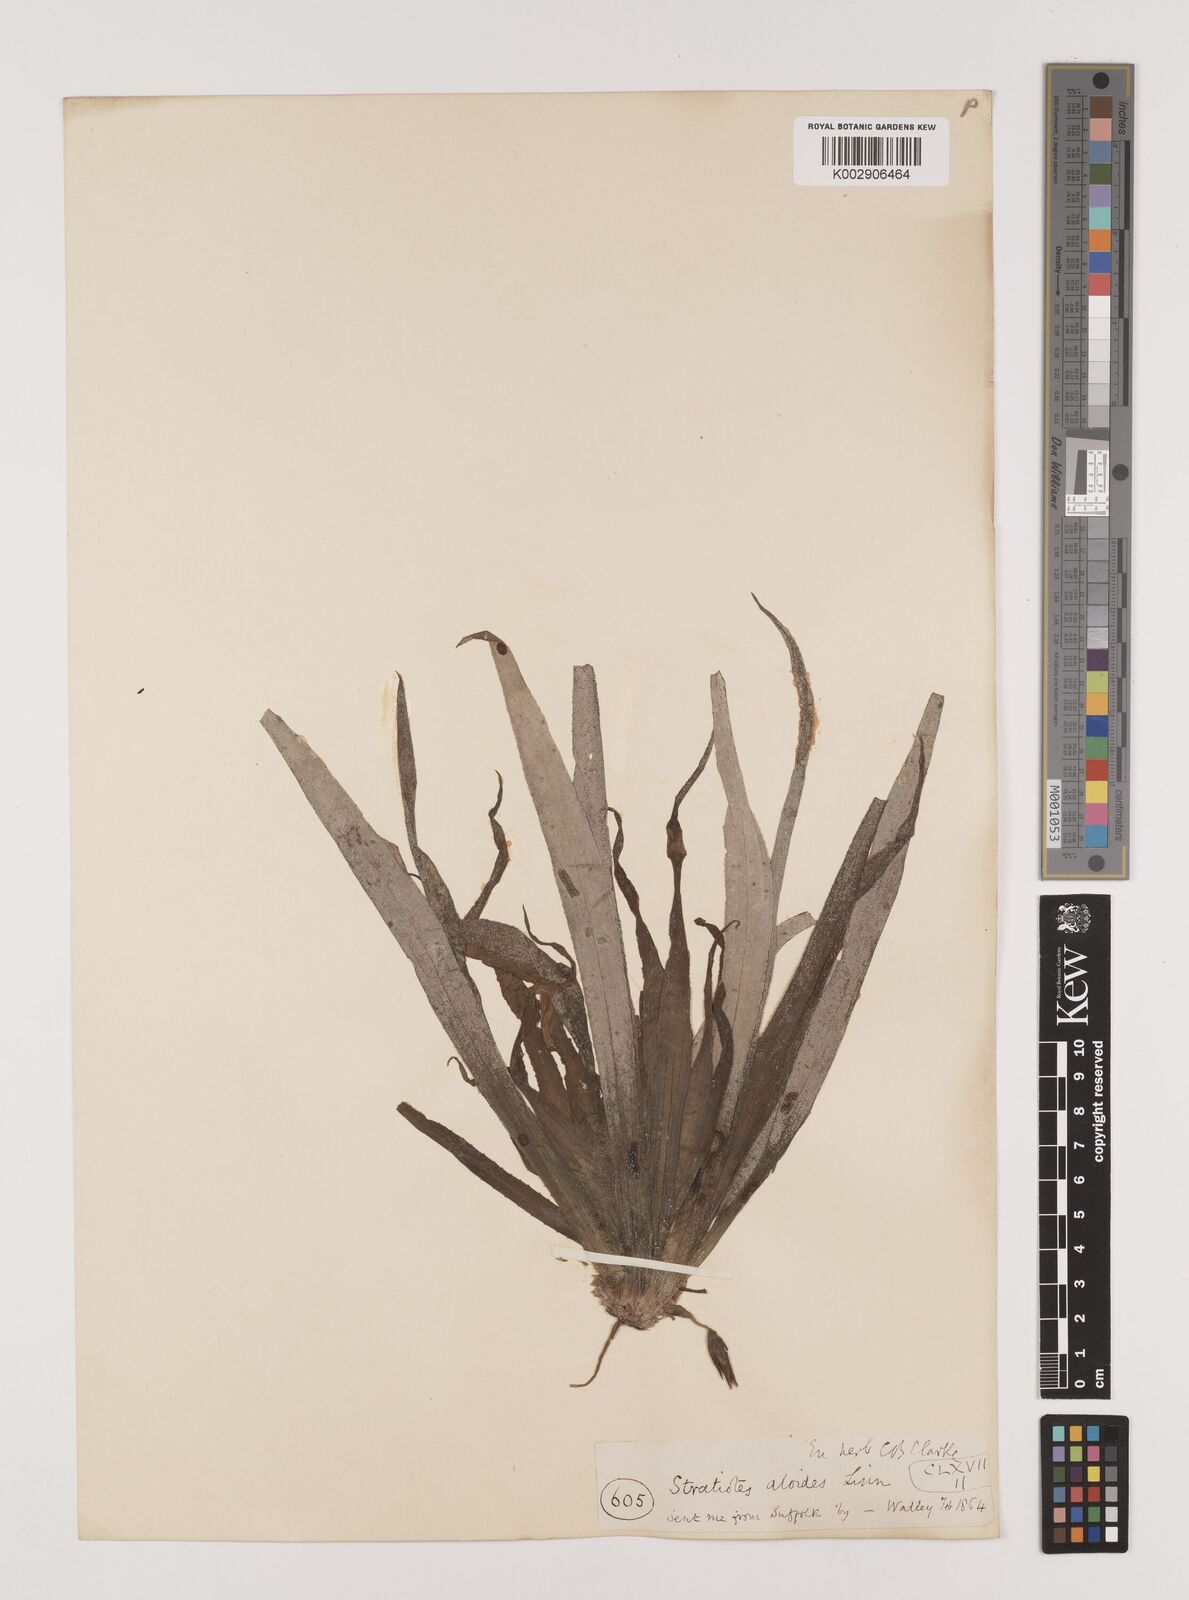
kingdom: Plantae
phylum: Tracheophyta
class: Liliopsida
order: Alismatales
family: Hydrocharitaceae
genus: Stratiotes
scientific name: Stratiotes aloides
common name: Water-soldier
